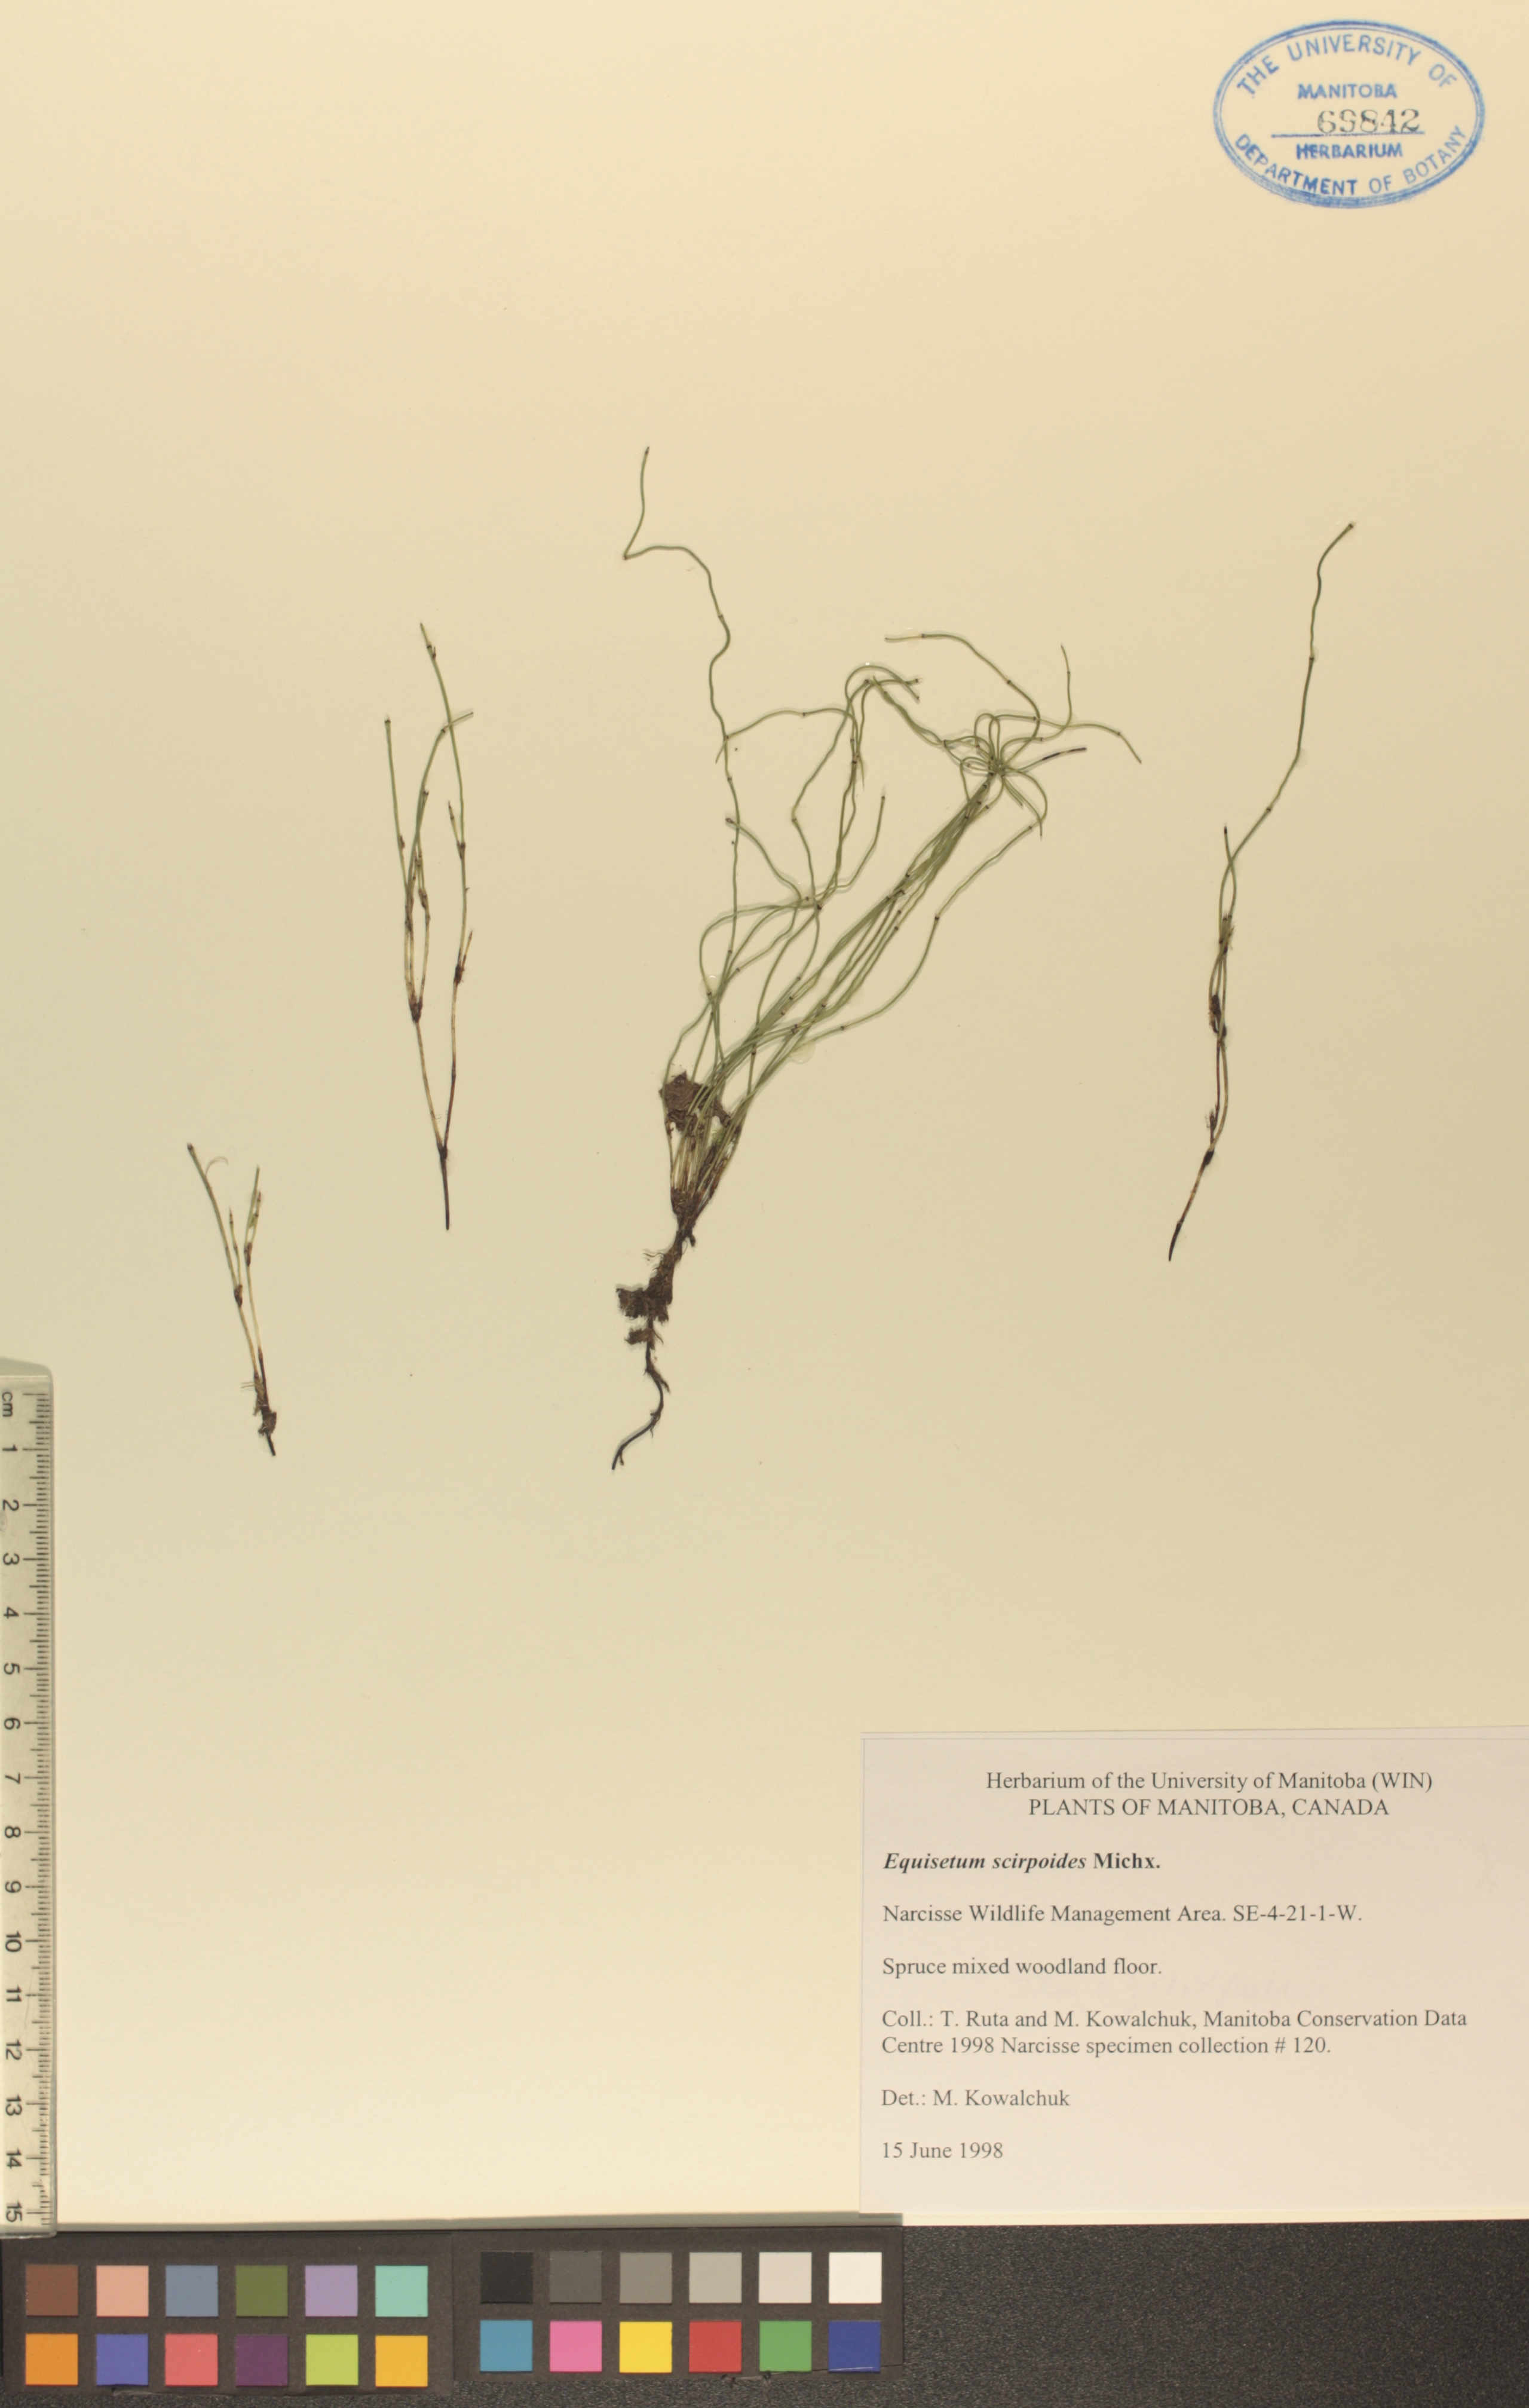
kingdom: Plantae
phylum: Tracheophyta
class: Polypodiopsida
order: Equisetales
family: Equisetaceae
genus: Equisetum
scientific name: Equisetum scirpoides
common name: Delicate horsetail
